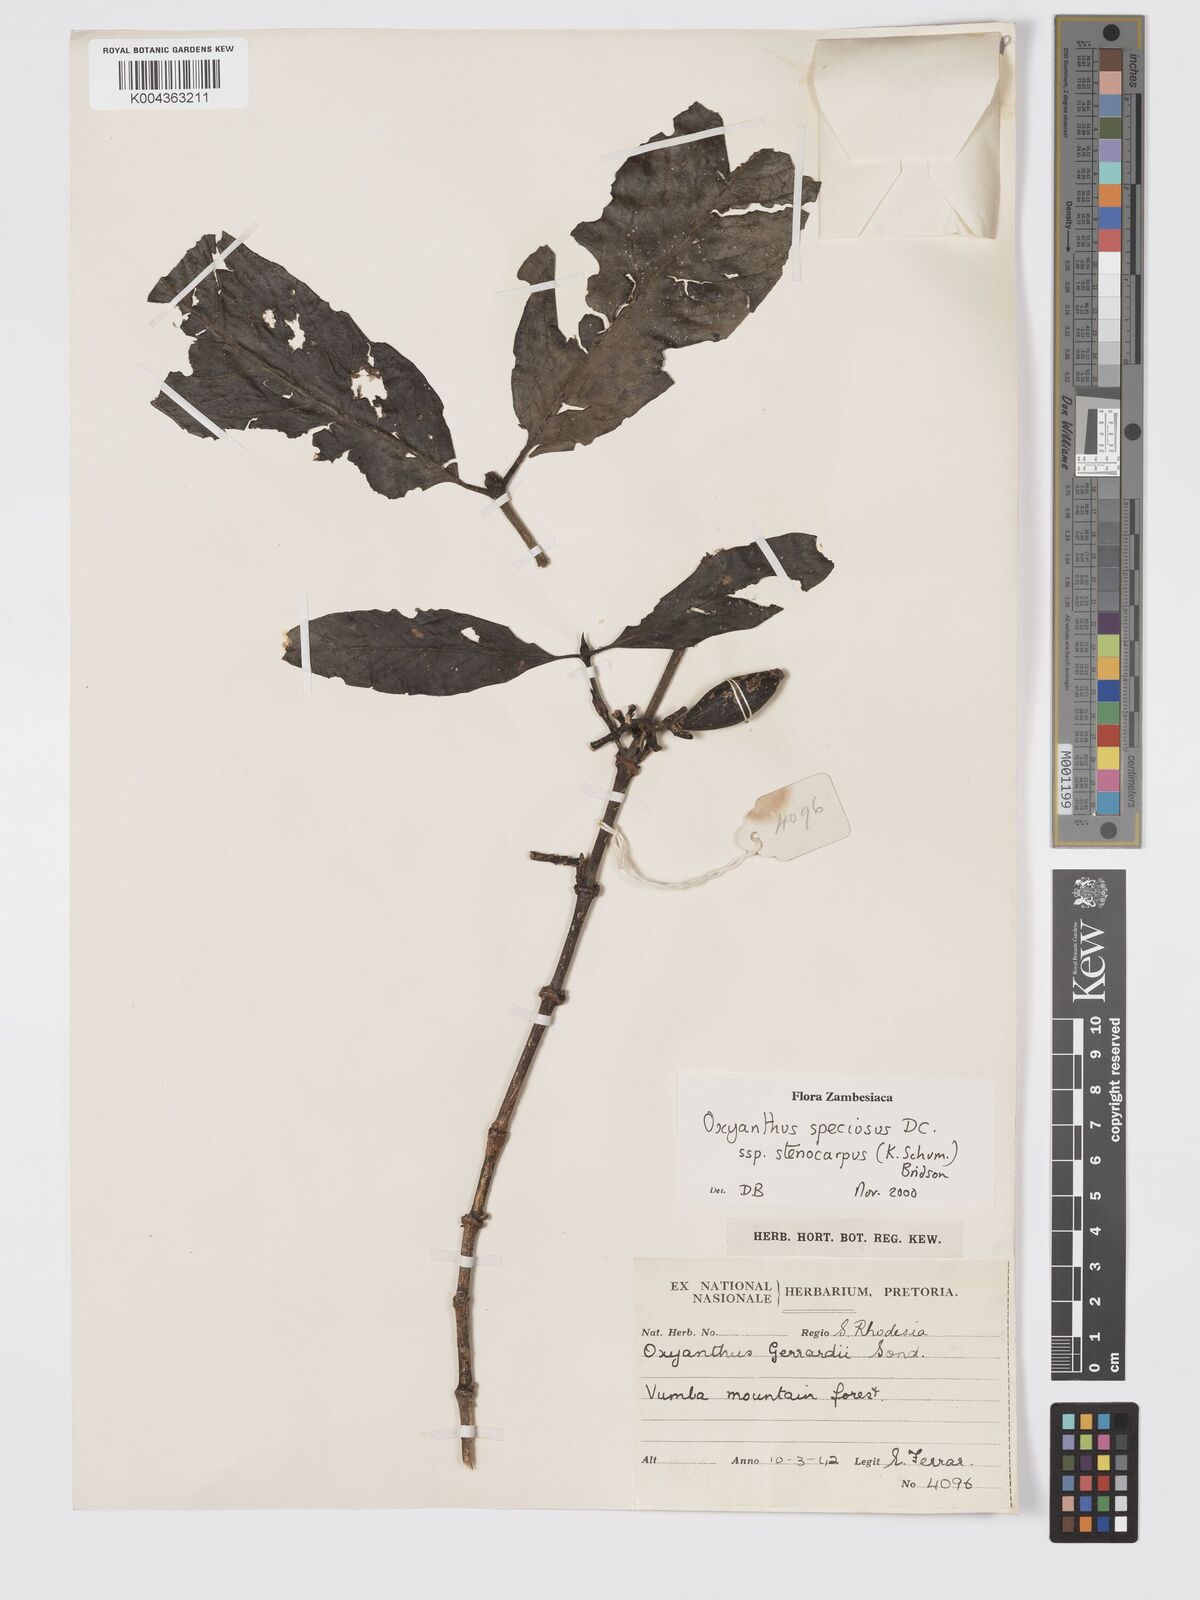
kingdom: Plantae
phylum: Tracheophyta
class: Magnoliopsida
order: Gentianales
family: Rubiaceae
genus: Oxyanthus
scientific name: Oxyanthus speciosus
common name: Whipstick loquat
